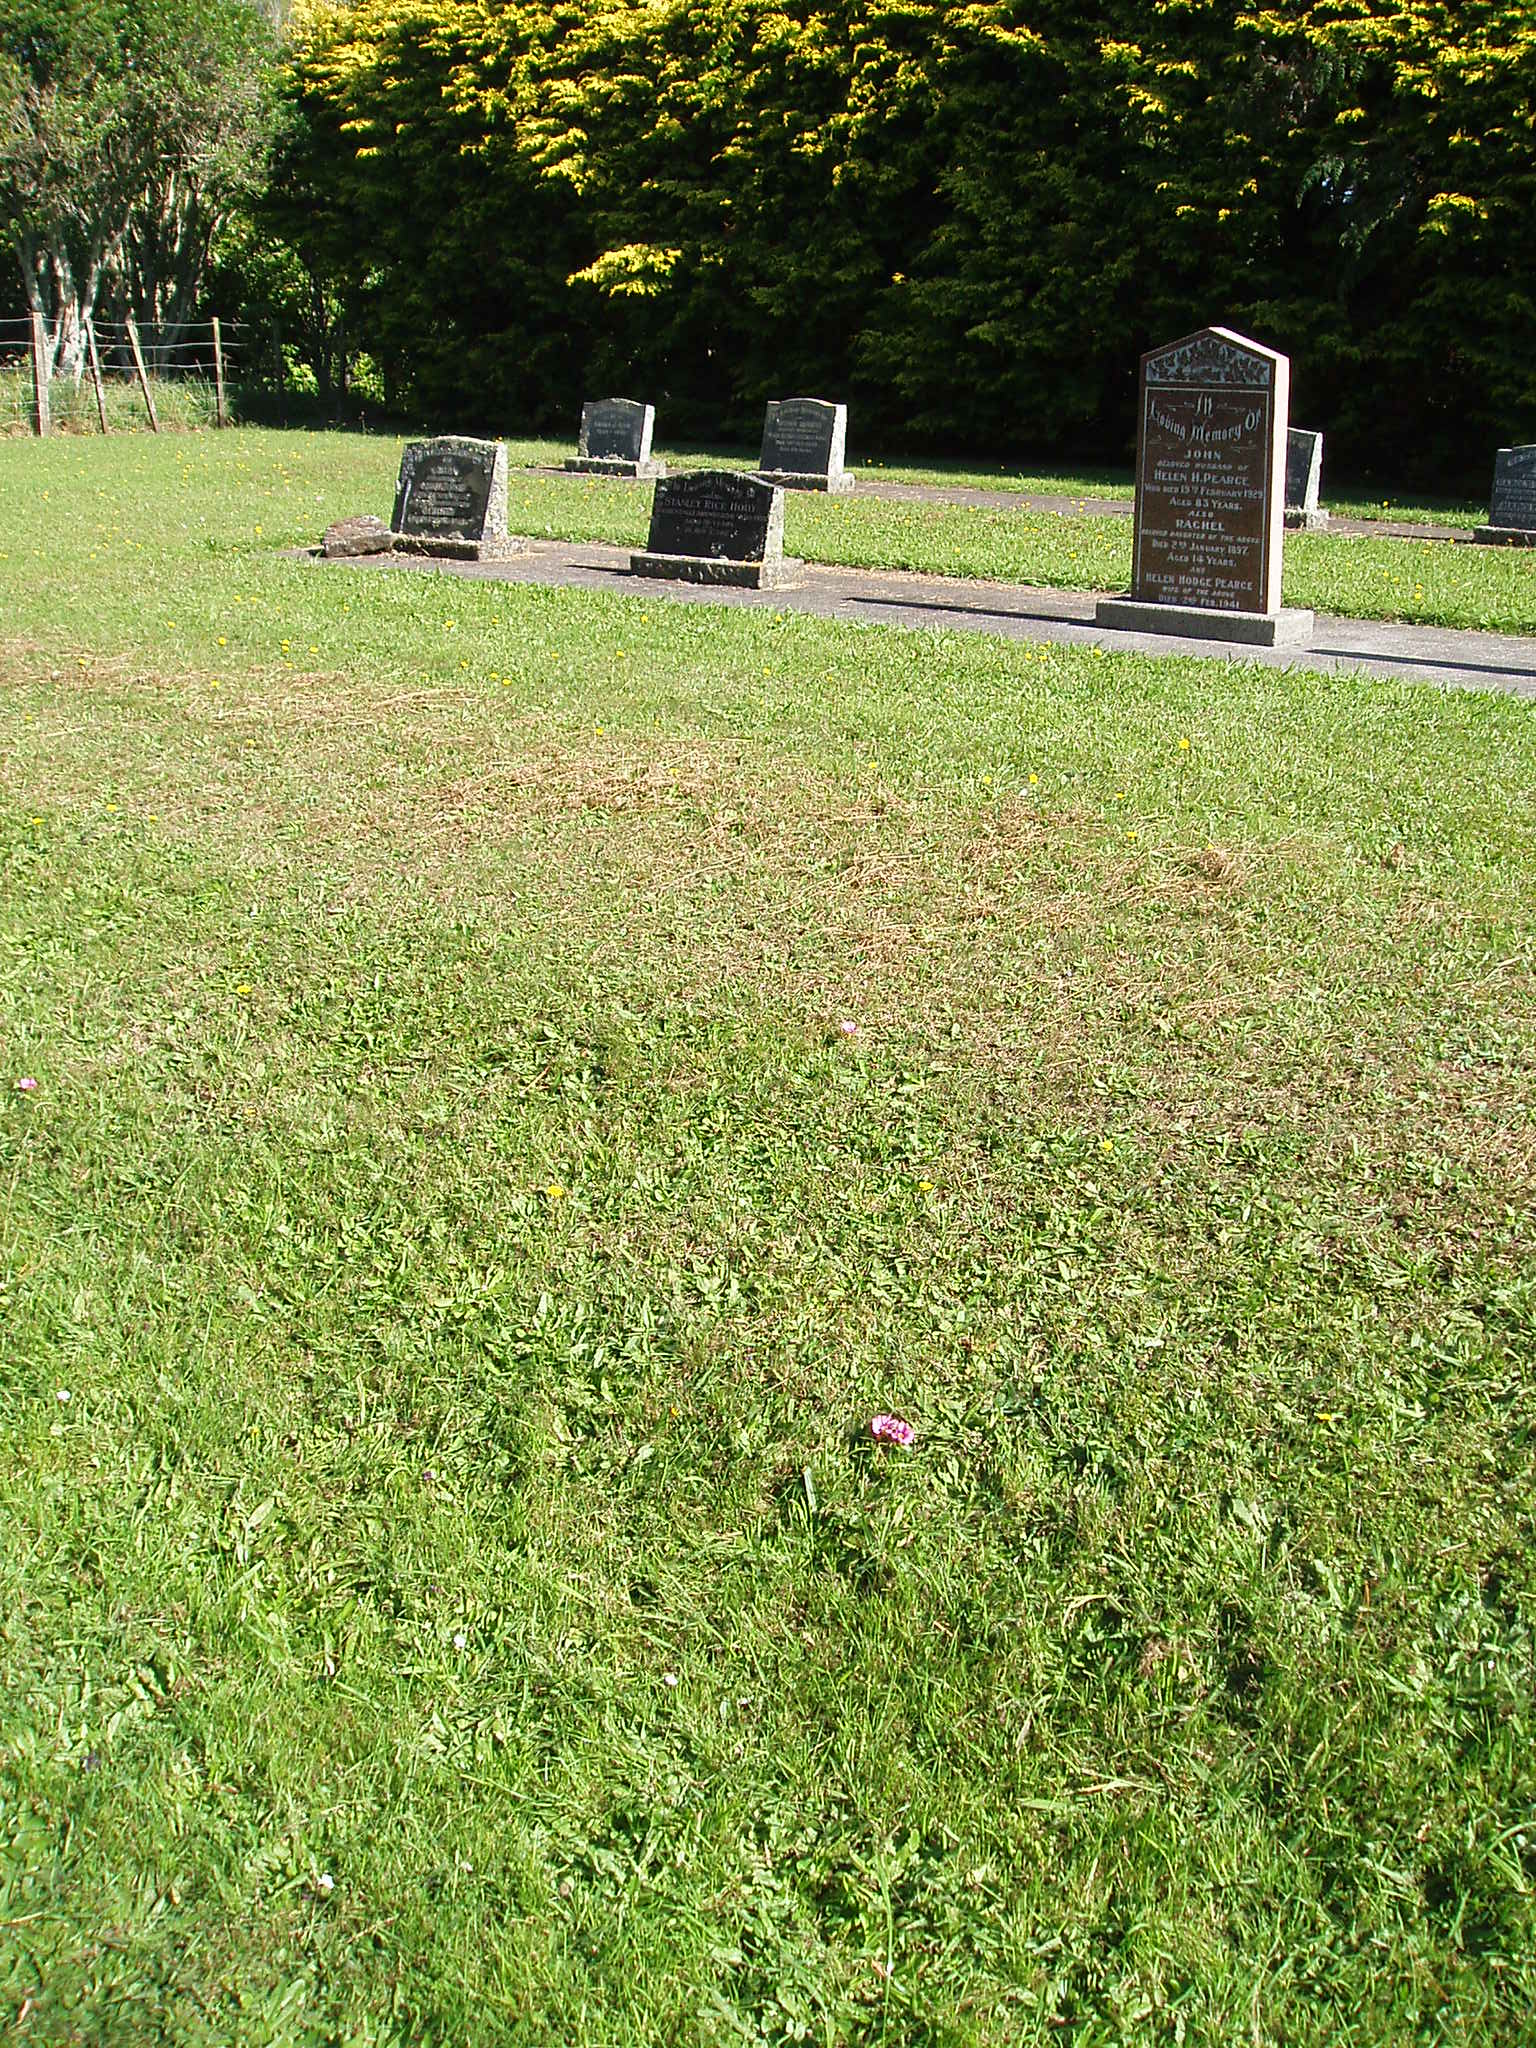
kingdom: Plantae
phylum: Tracheophyta
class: Magnoliopsida
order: Oxalidales
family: Oxalidaceae
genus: Oxalis
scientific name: Oxalis purpurea
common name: Purple woodsorrel
